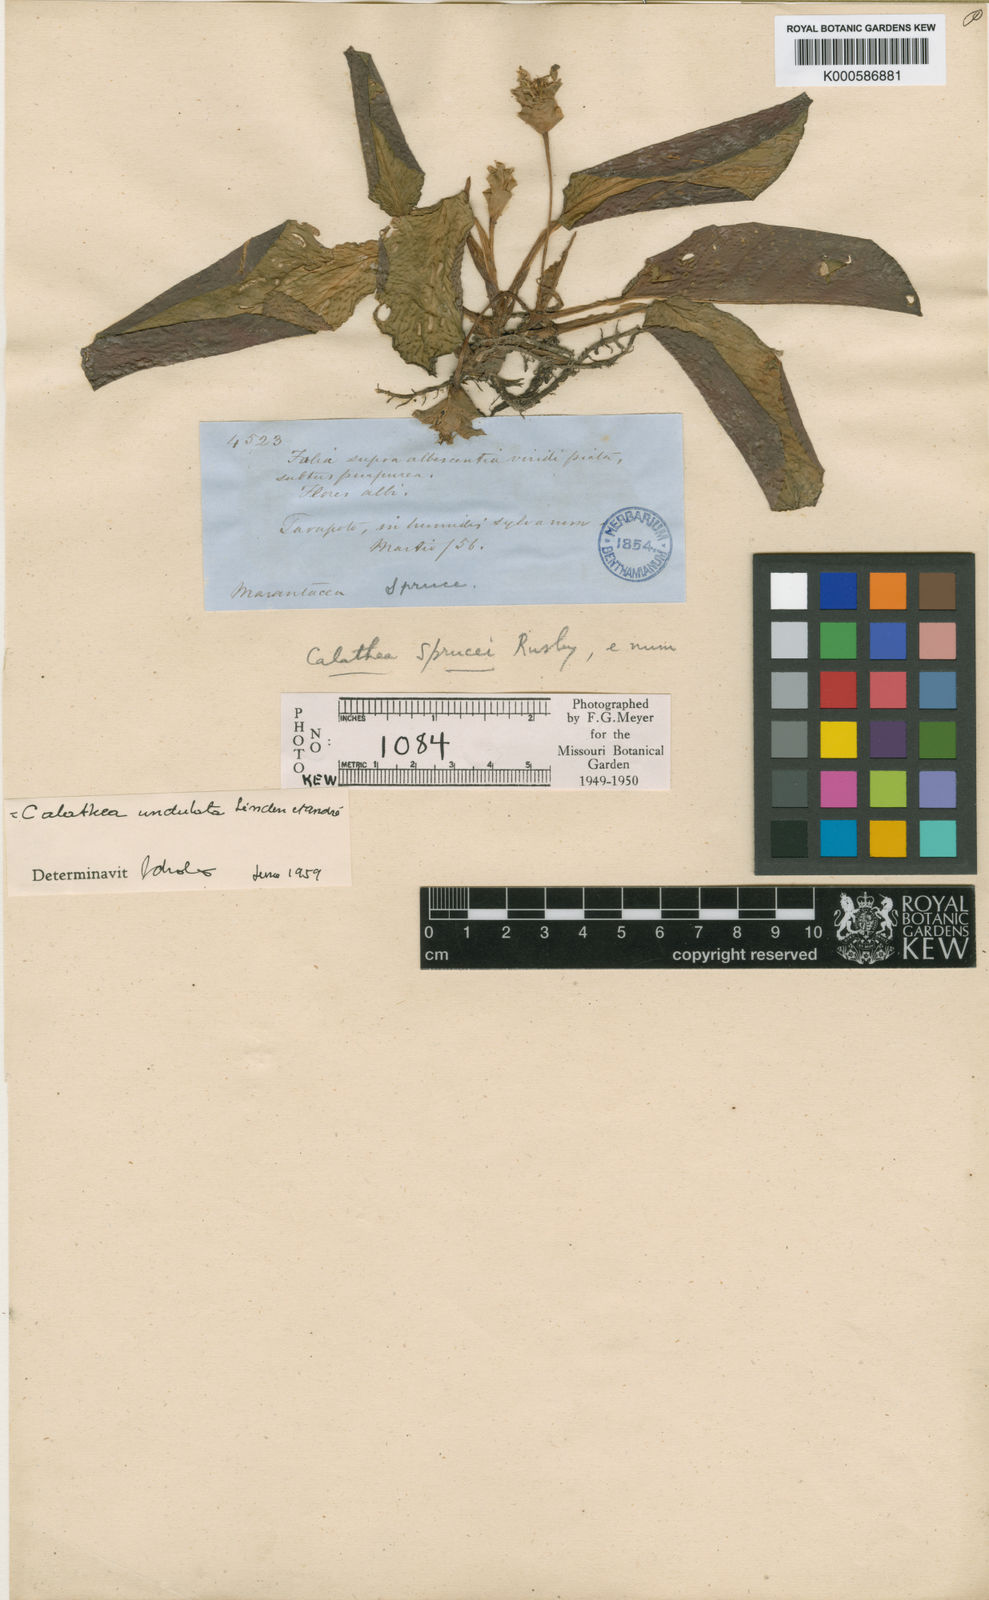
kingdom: Plantae
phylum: Tracheophyta
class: Liliopsida
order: Zingiberales
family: Marantaceae
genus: Goeppertia
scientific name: Goeppertia micans
